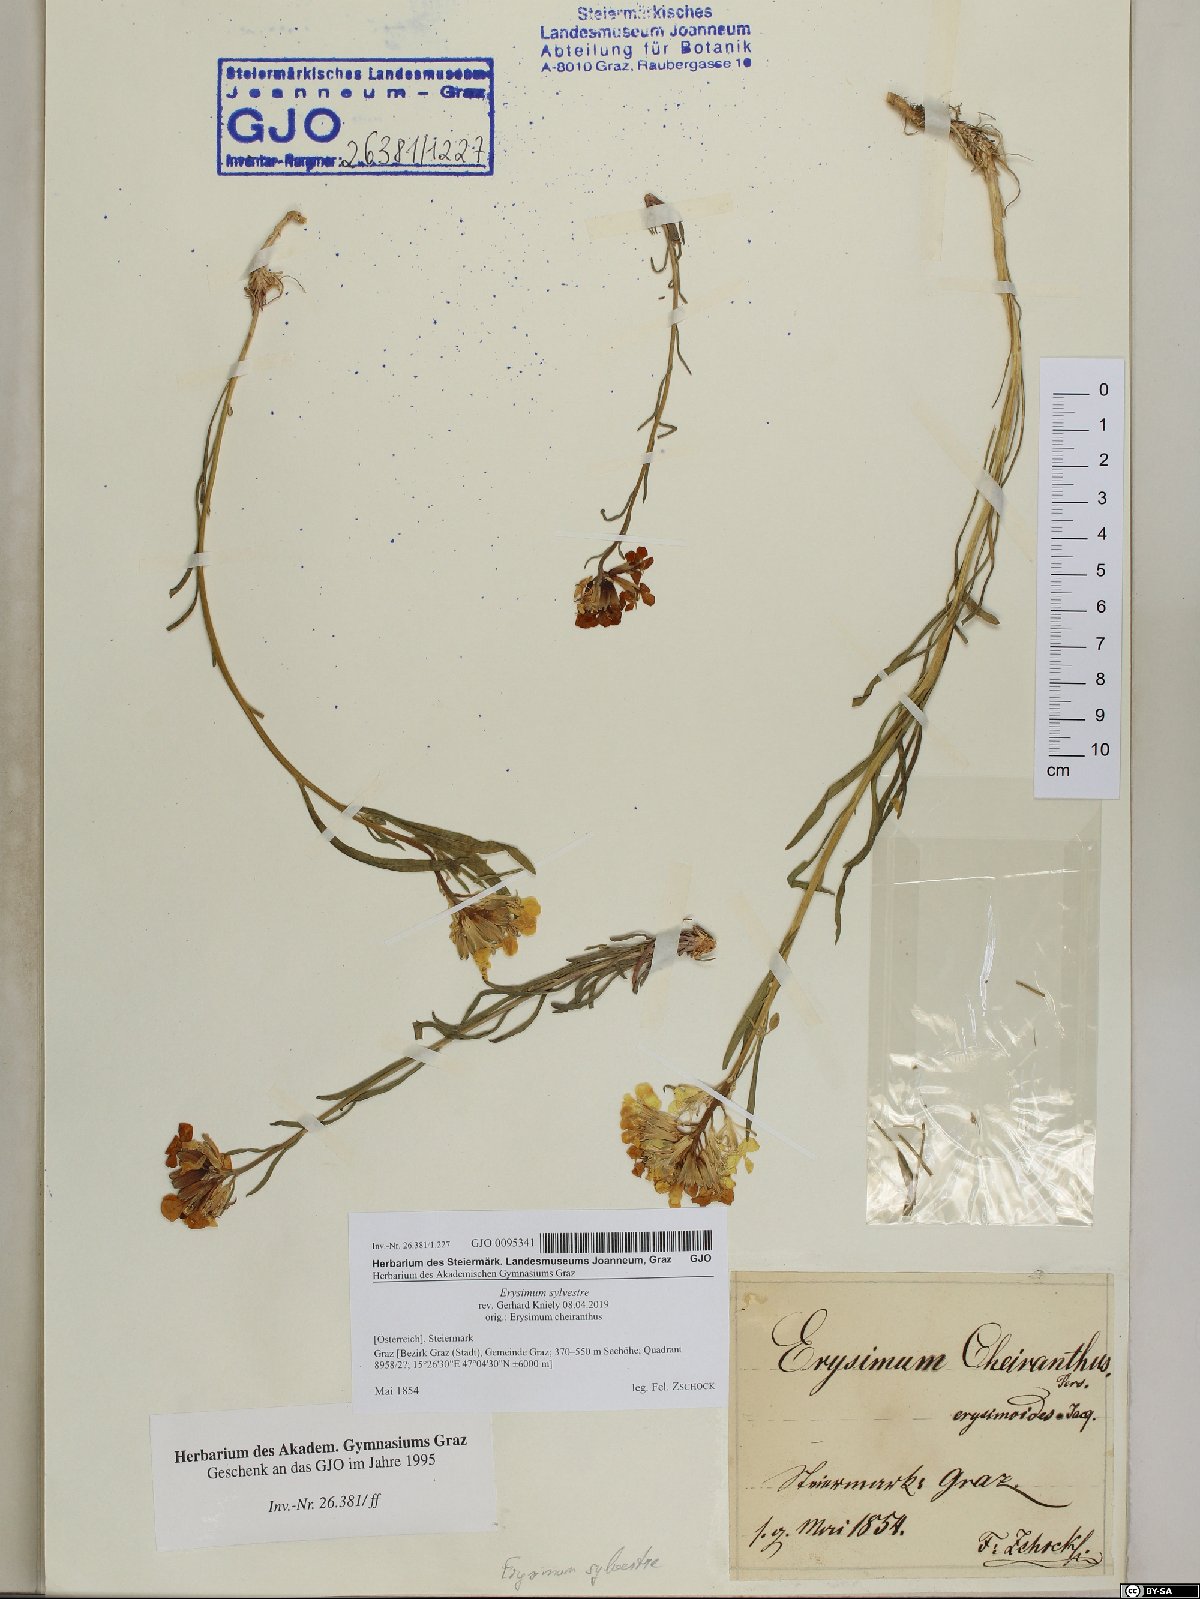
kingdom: Plantae
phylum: Tracheophyta
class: Magnoliopsida
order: Brassicales
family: Brassicaceae
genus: Erysimum
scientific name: Erysimum sylvestre
